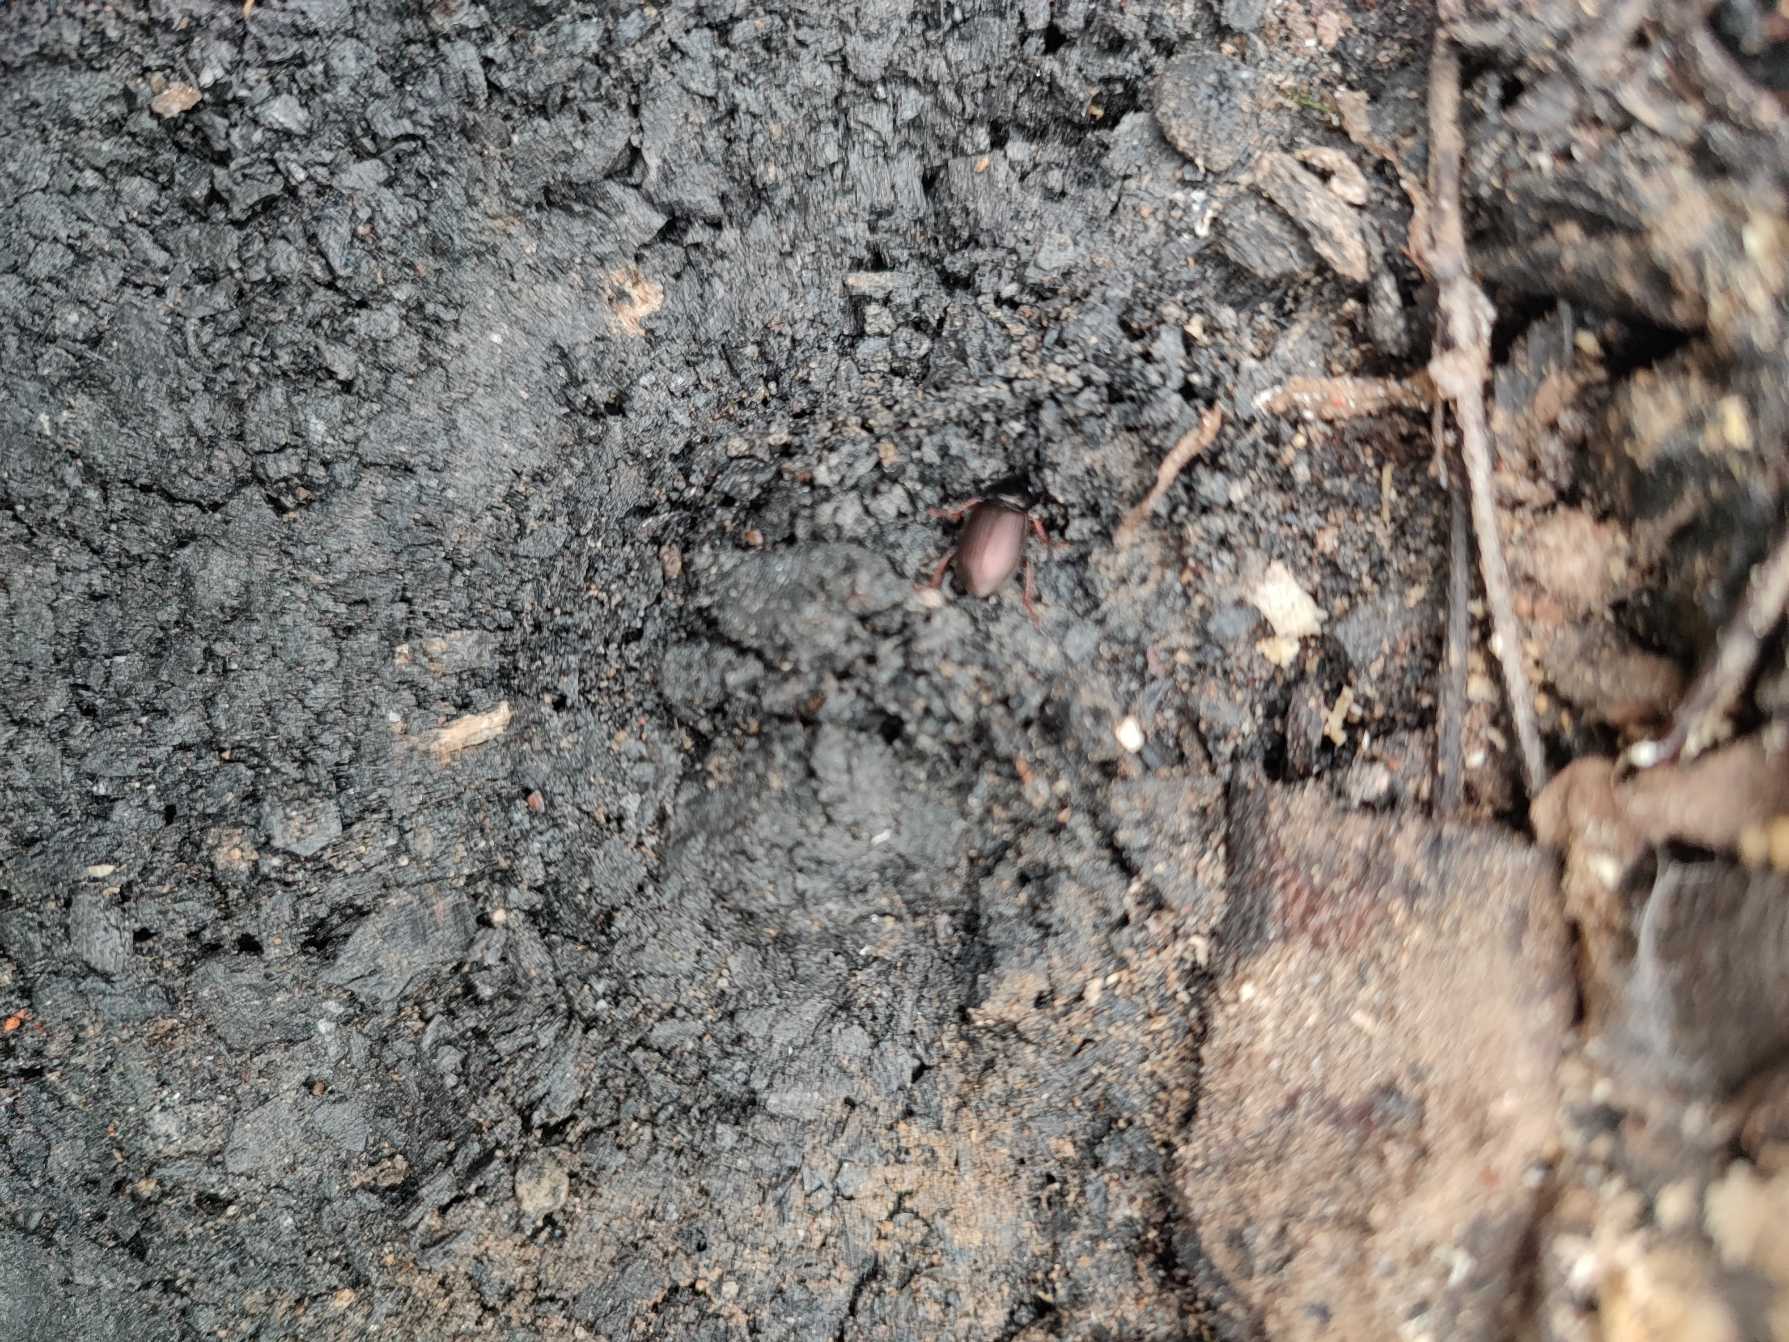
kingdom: Animalia
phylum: Arthropoda
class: Insecta
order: Coleoptera
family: Carabidae
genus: Harpalus
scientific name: Harpalus affinis
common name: Metallisk sandløber
